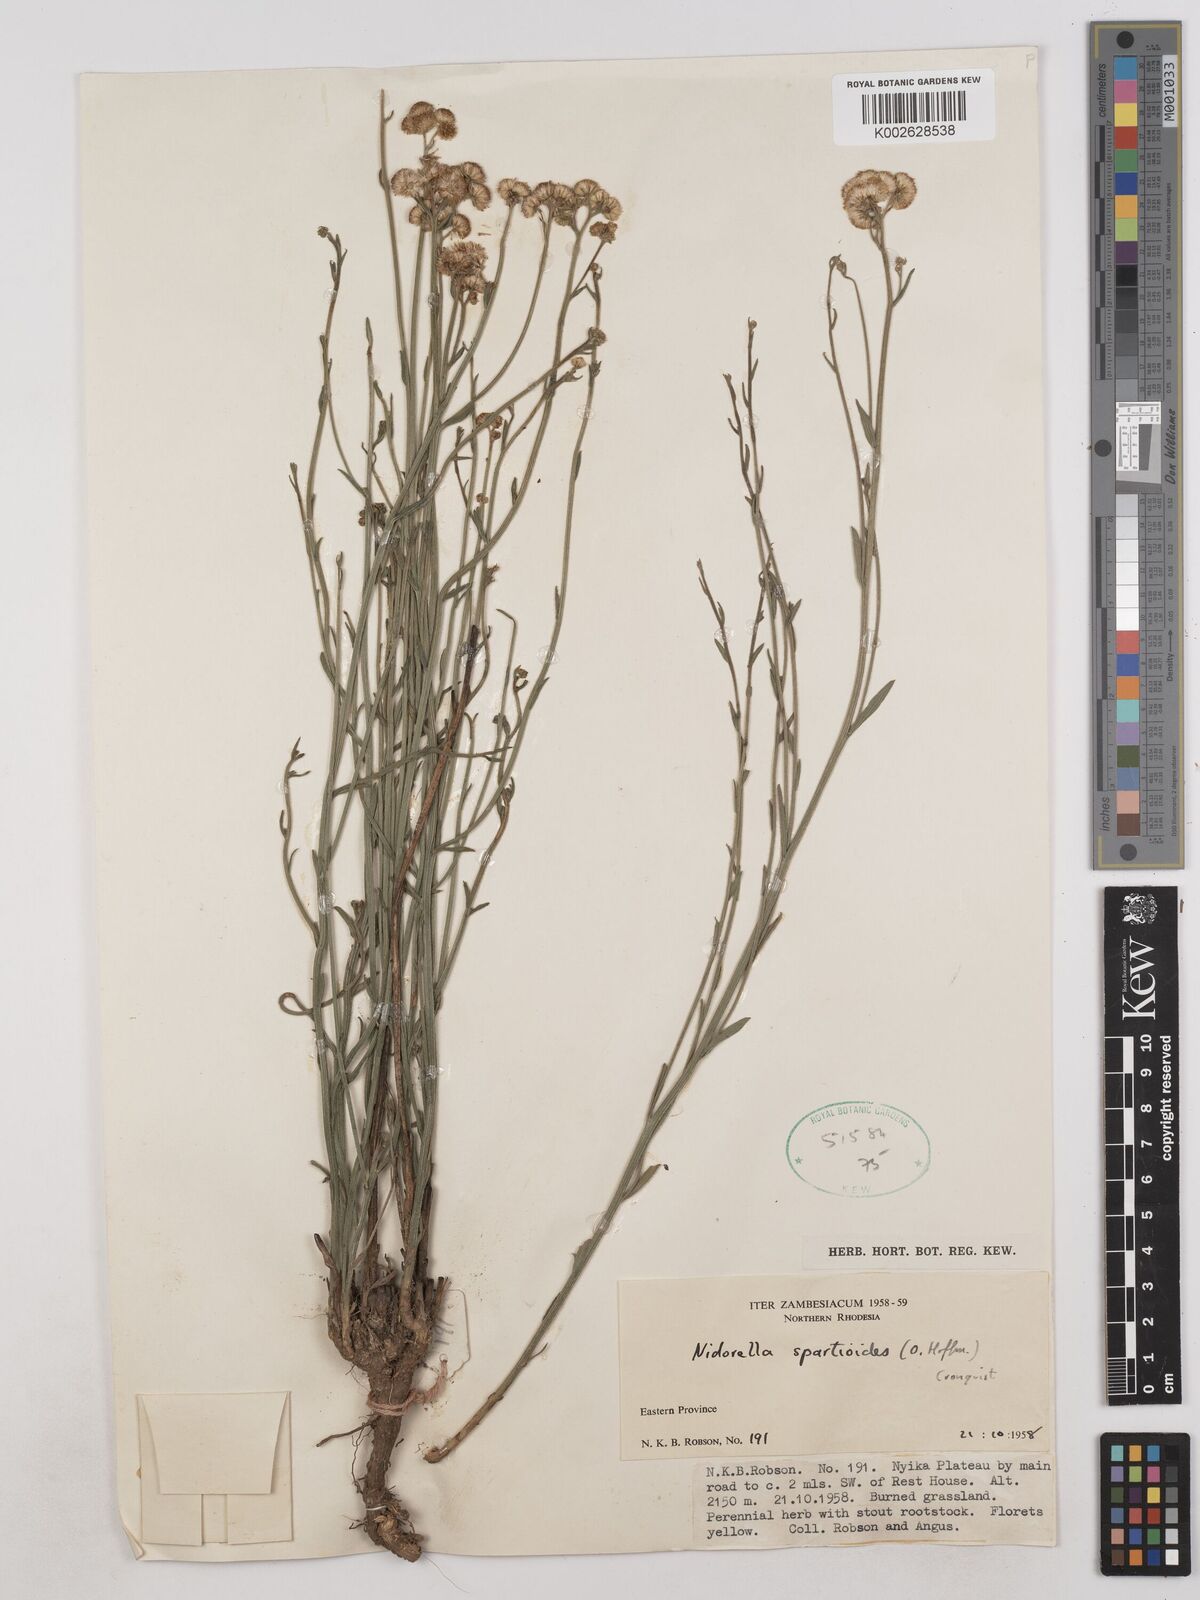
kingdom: Plantae
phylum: Tracheophyta
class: Magnoliopsida
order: Asterales
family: Asteraceae
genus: Nidorella
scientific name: Nidorella spartioides
